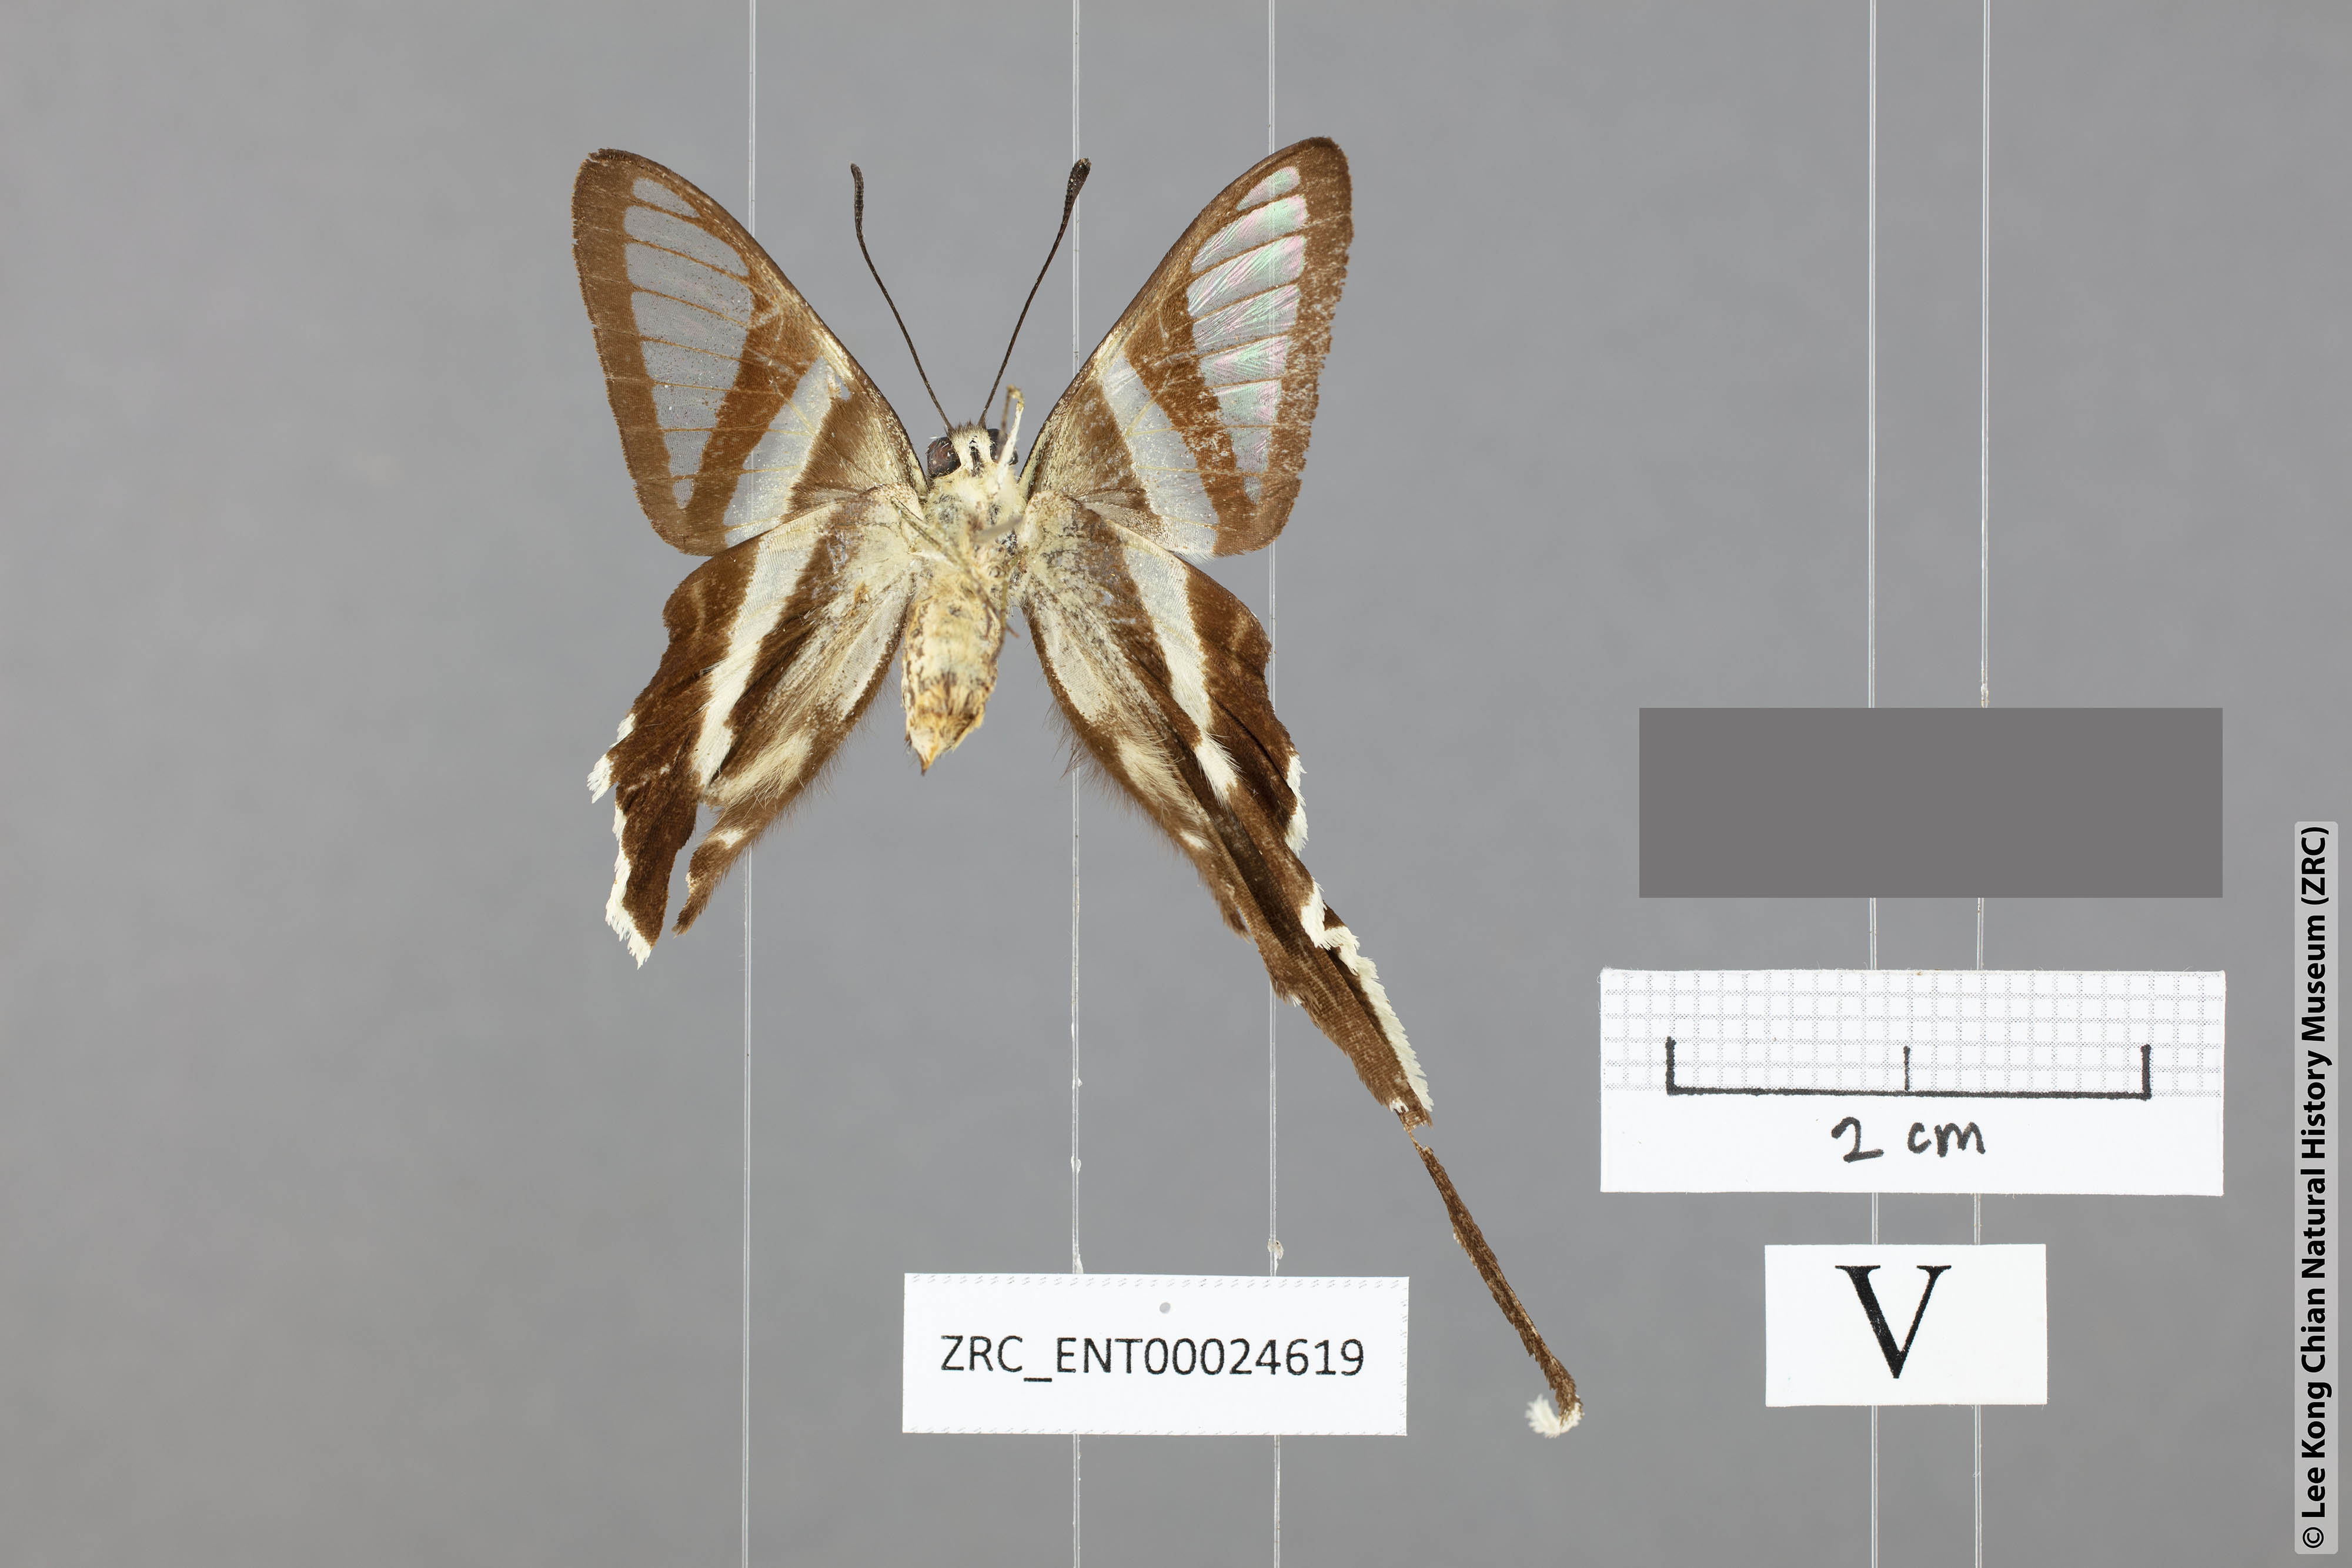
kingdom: Animalia
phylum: Arthropoda
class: Insecta
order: Lepidoptera
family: Papilionidae
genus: Lamproptera
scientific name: Lamproptera curius
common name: White dragontail
